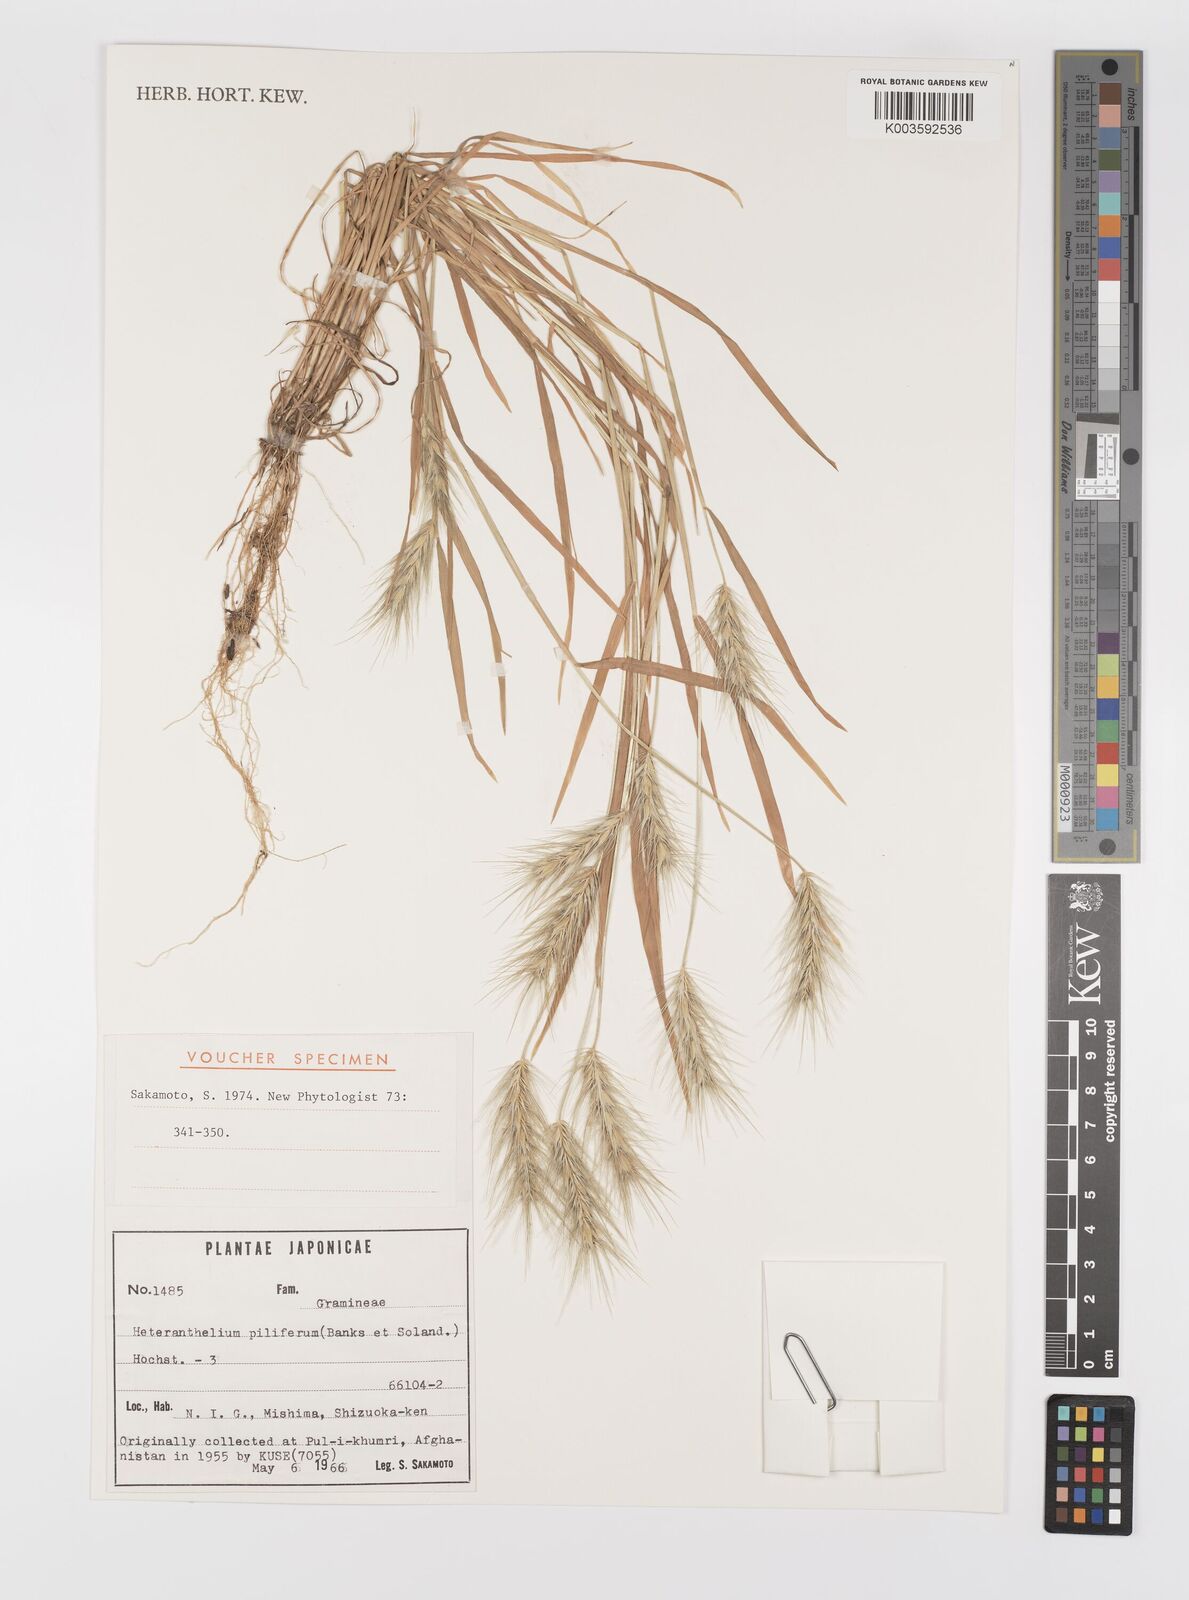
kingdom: Plantae
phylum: Tracheophyta
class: Liliopsida
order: Poales
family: Poaceae
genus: Heteranthelium
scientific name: Heteranthelium piliferum
